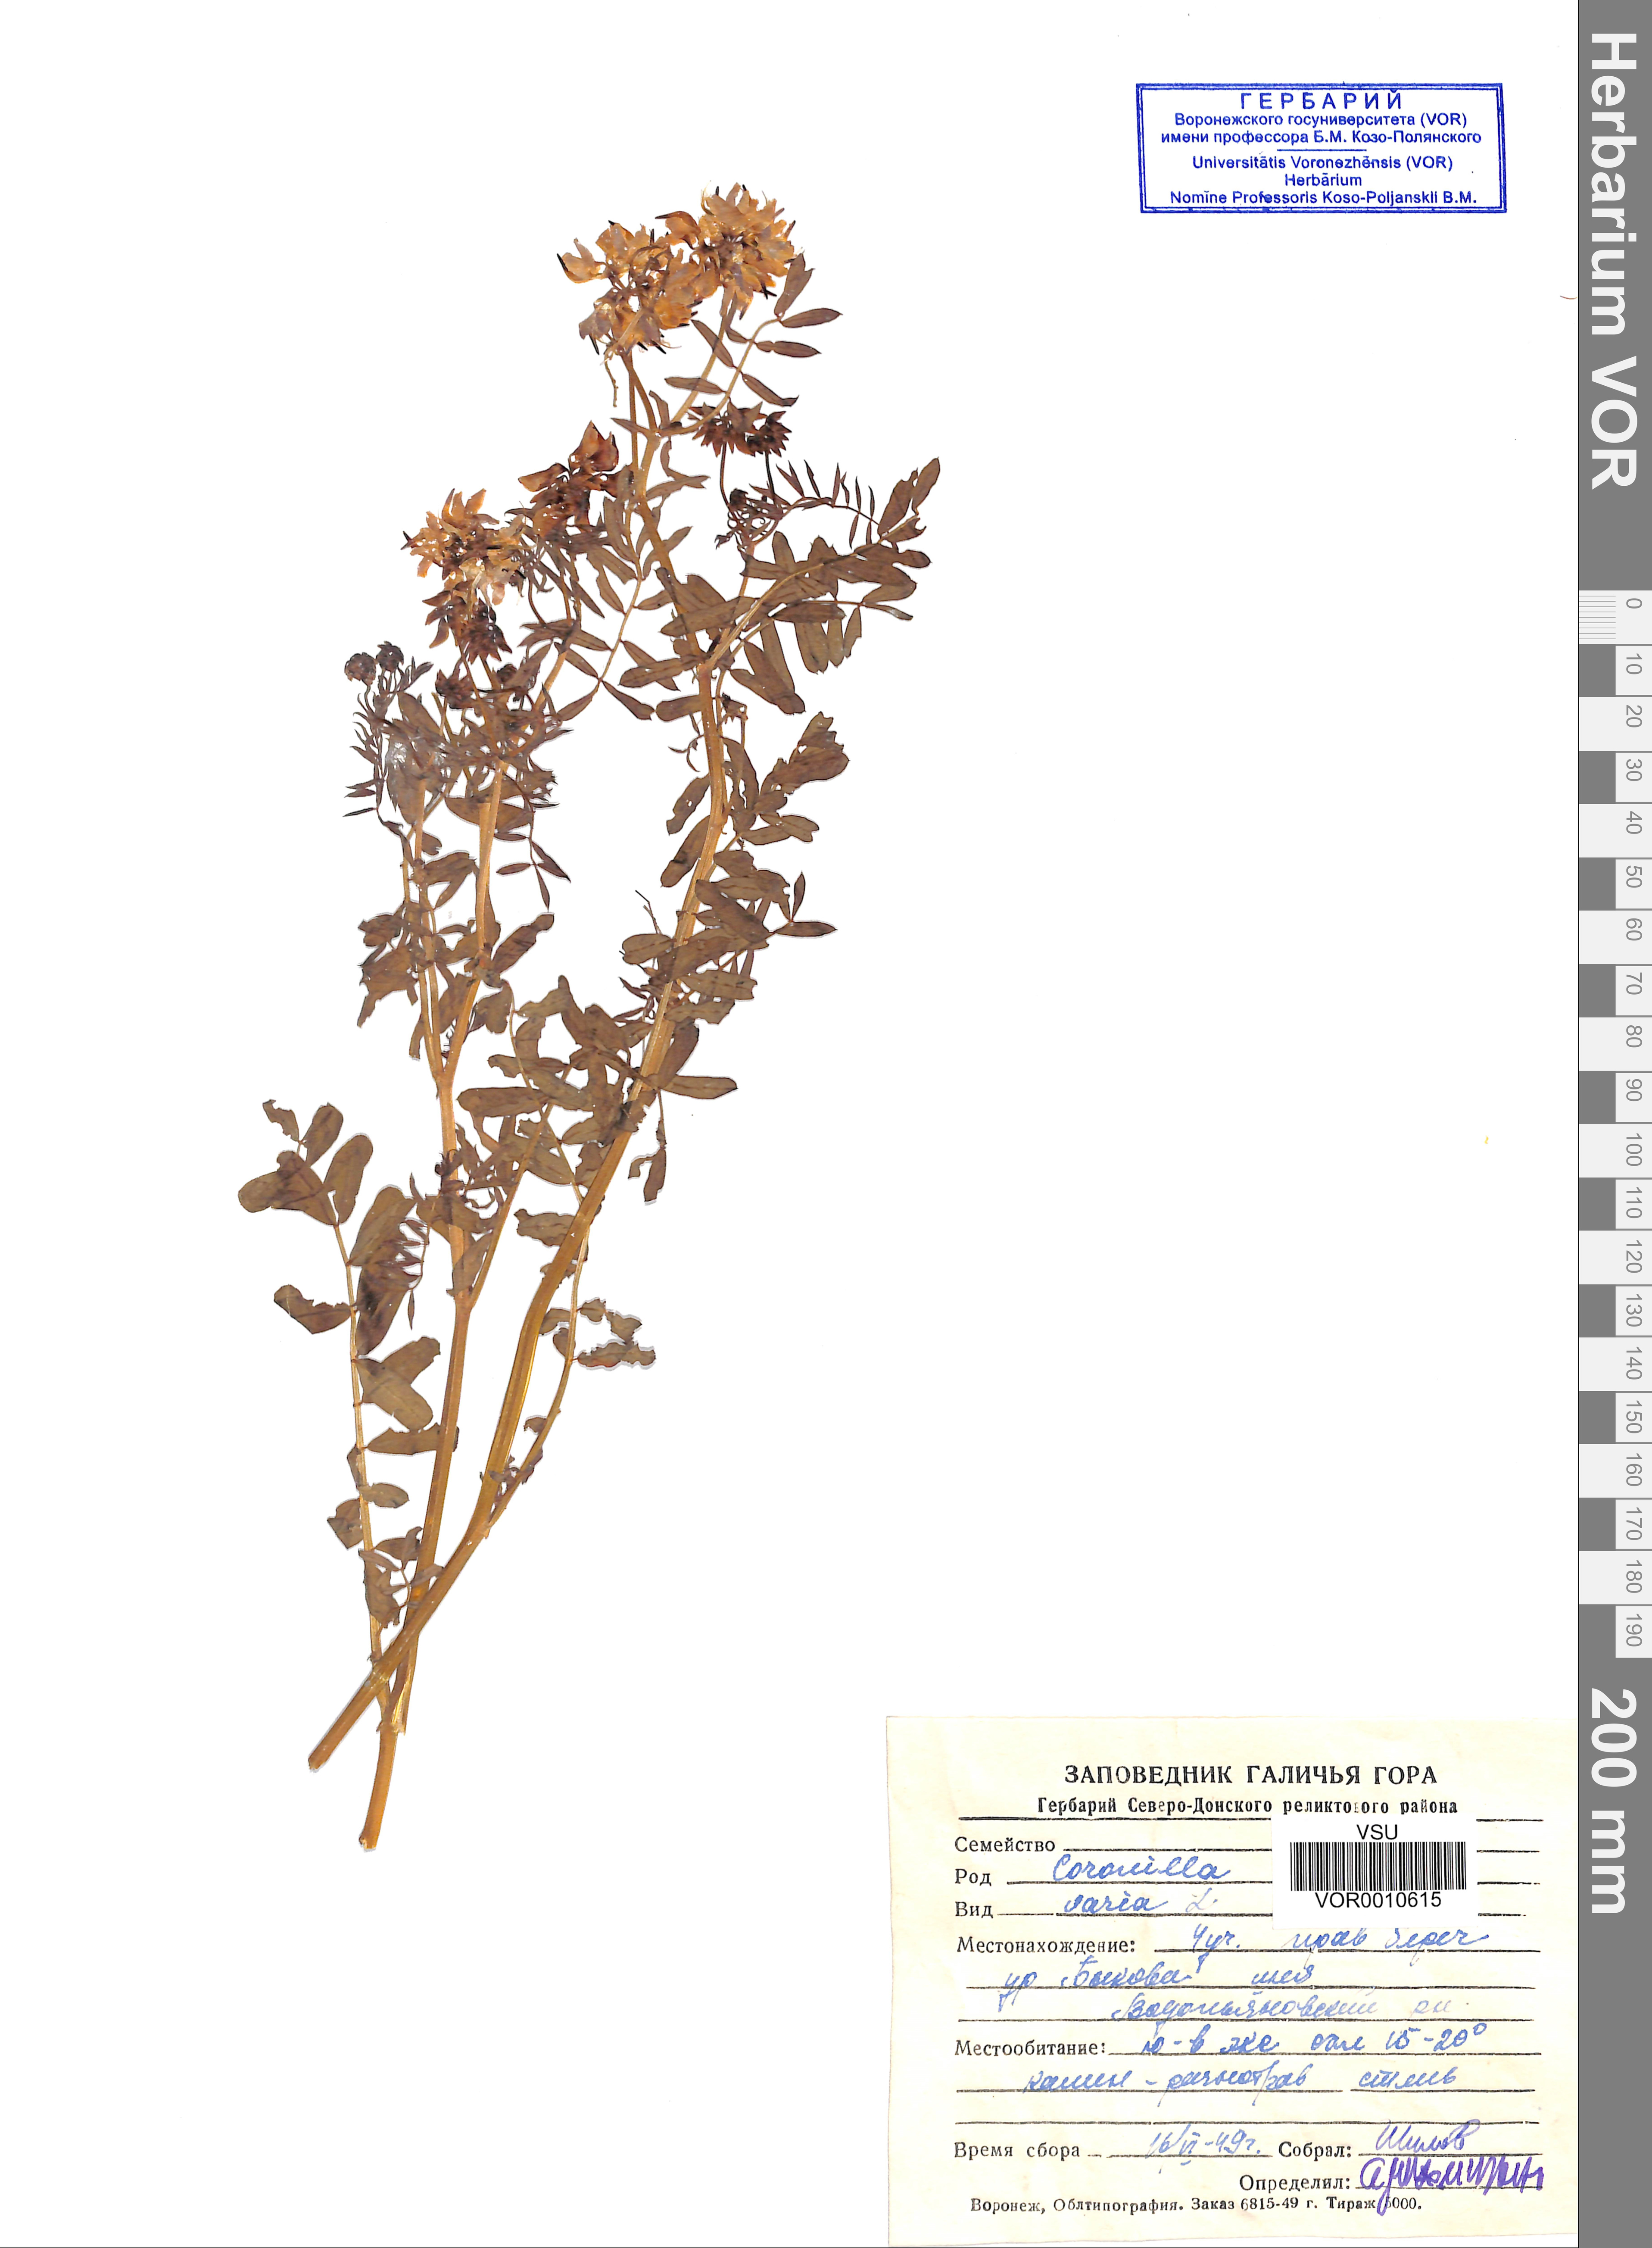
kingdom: Plantae
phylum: Tracheophyta
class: Magnoliopsida
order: Fabales
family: Fabaceae
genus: Coronilla
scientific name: Coronilla varia
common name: Crownvetch
